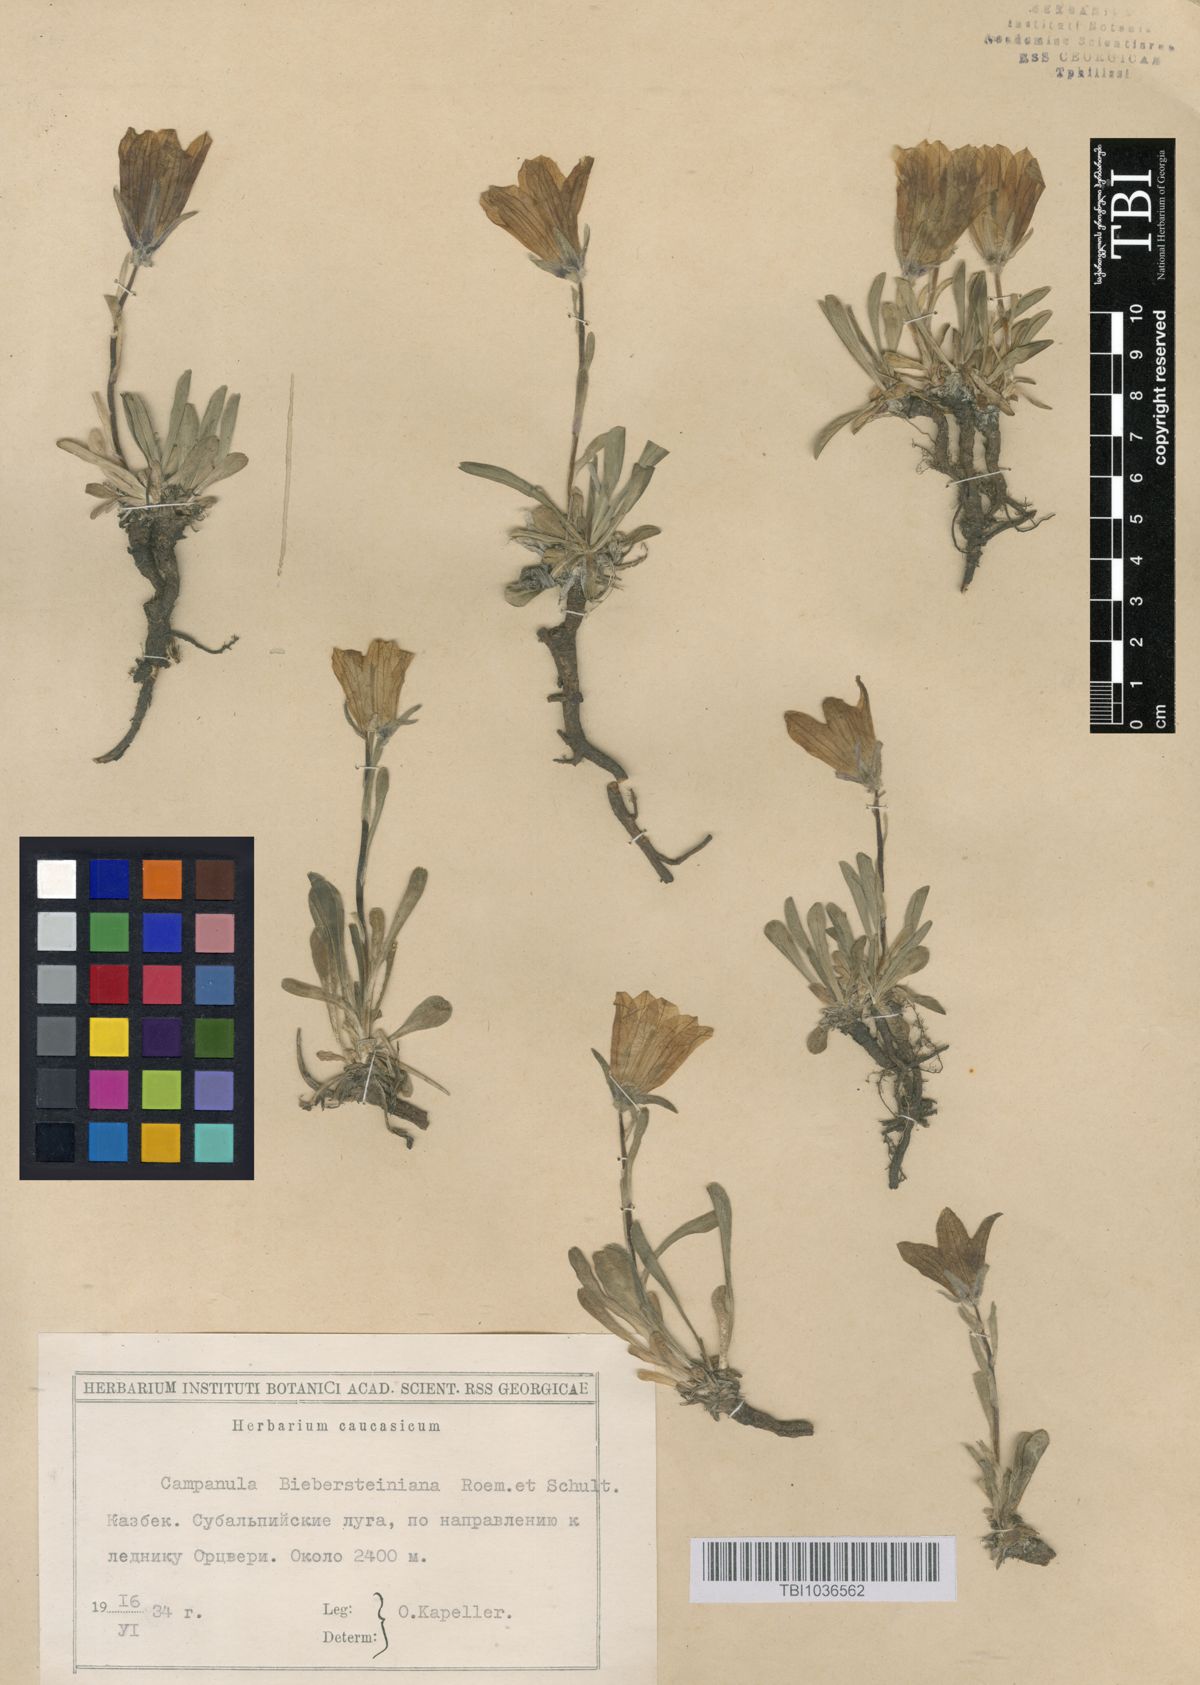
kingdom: Plantae
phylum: Tracheophyta
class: Magnoliopsida
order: Asterales
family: Campanulaceae
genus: Campanula
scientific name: Campanula tridentata
